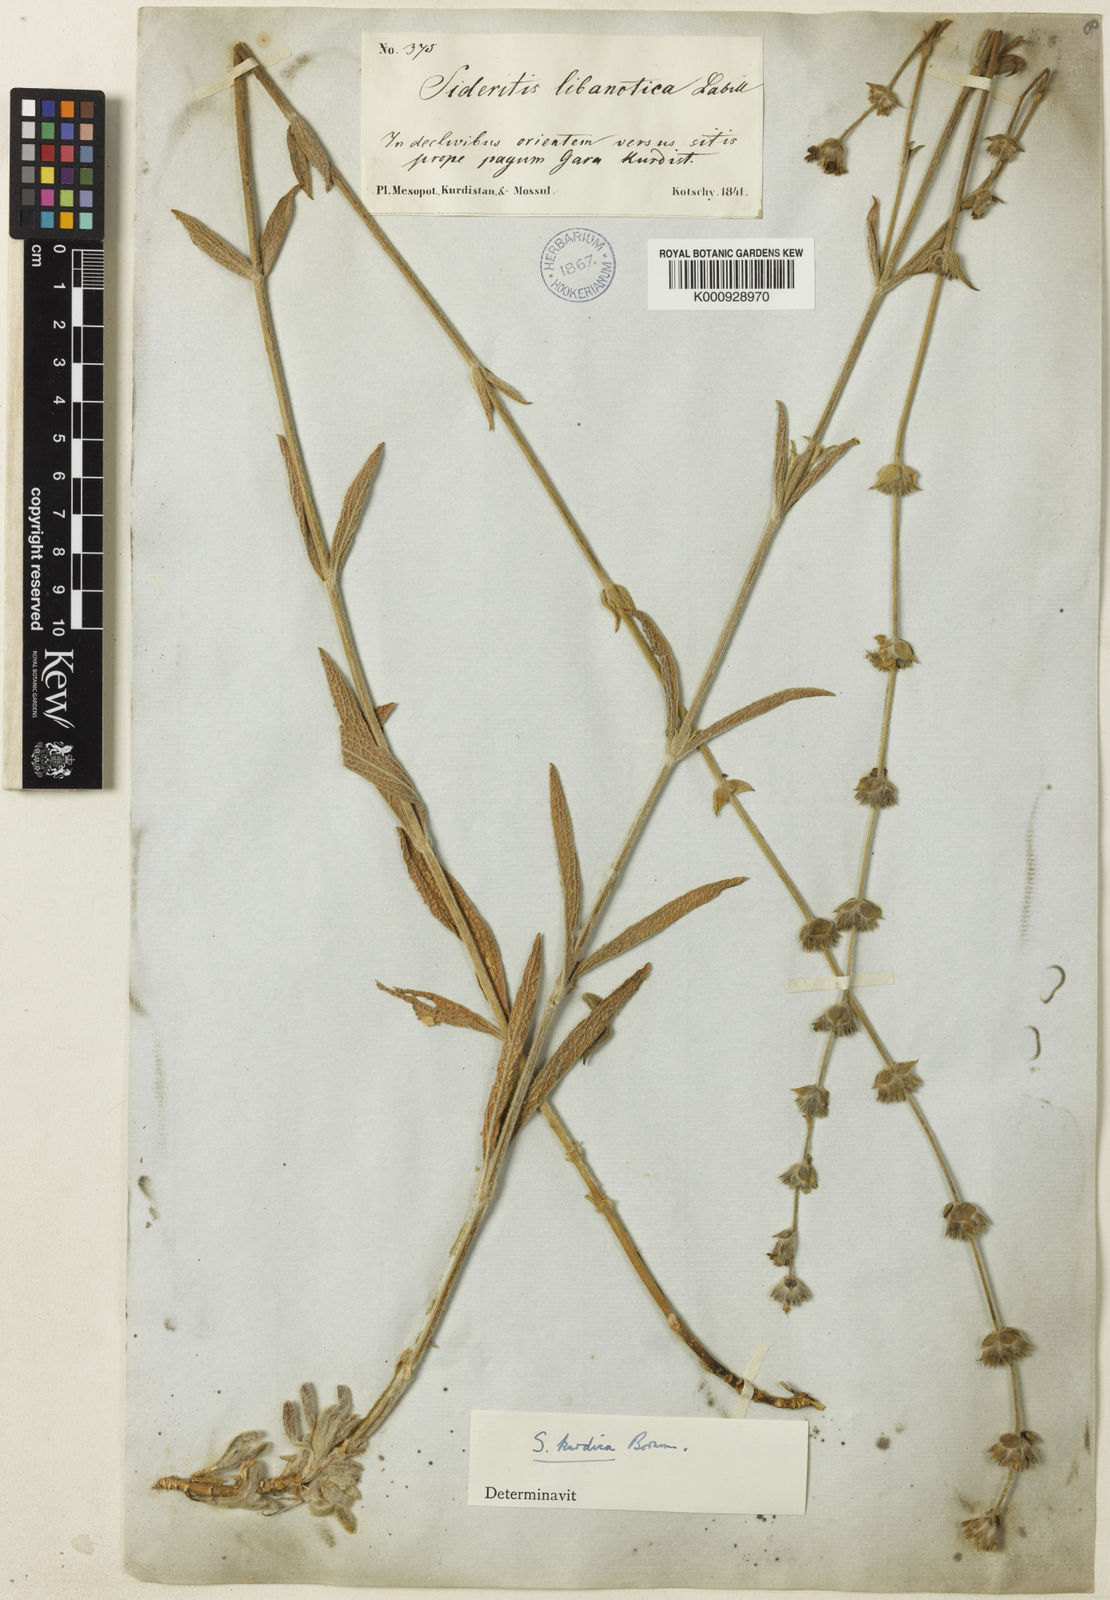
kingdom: Plantae
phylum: Tracheophyta
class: Magnoliopsida
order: Lamiales
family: Lamiaceae
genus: Sideritis
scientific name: Sideritis pisidica
